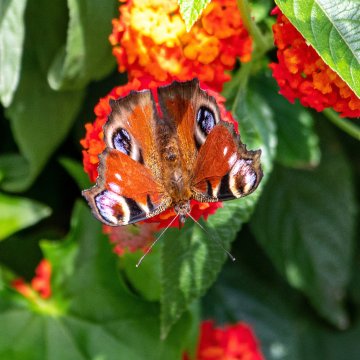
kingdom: Animalia
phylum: Arthropoda
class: Insecta
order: Lepidoptera
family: Nymphalidae
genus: Aglais
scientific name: Aglais io
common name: European Peacock
